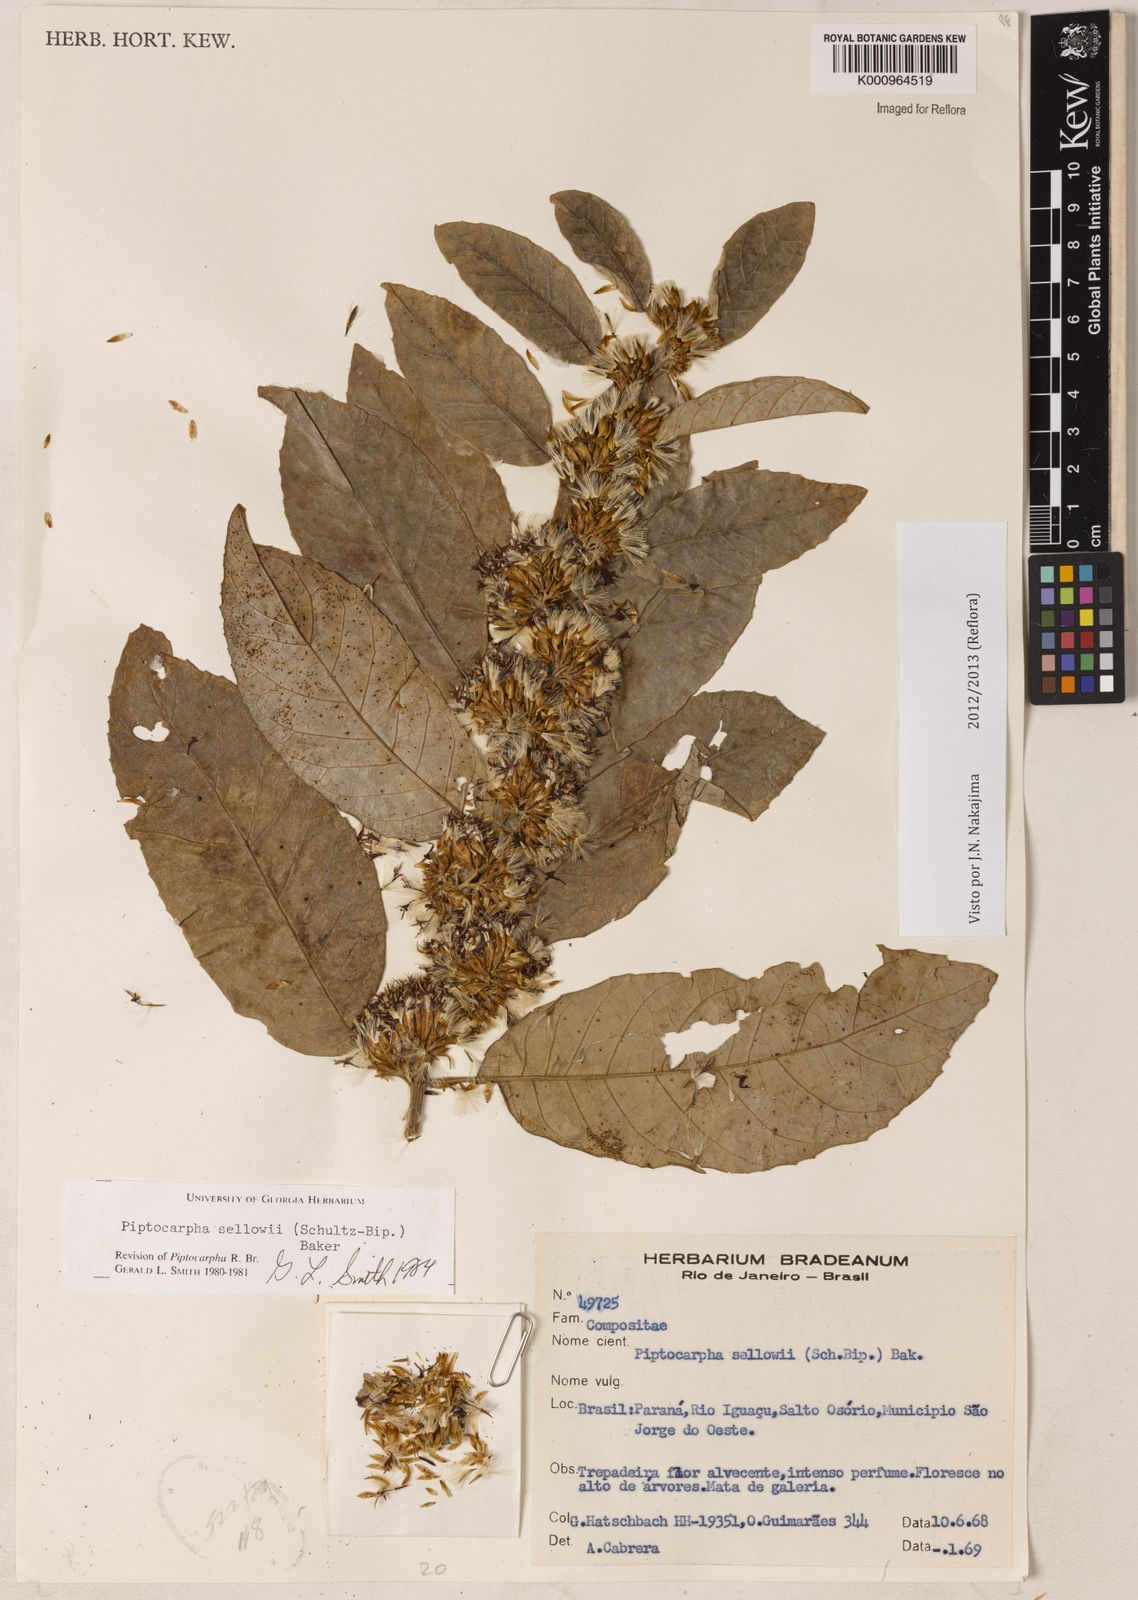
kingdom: Plantae
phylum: Tracheophyta
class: Magnoliopsida
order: Asterales
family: Asteraceae
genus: Piptocarpha
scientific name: Piptocarpha
